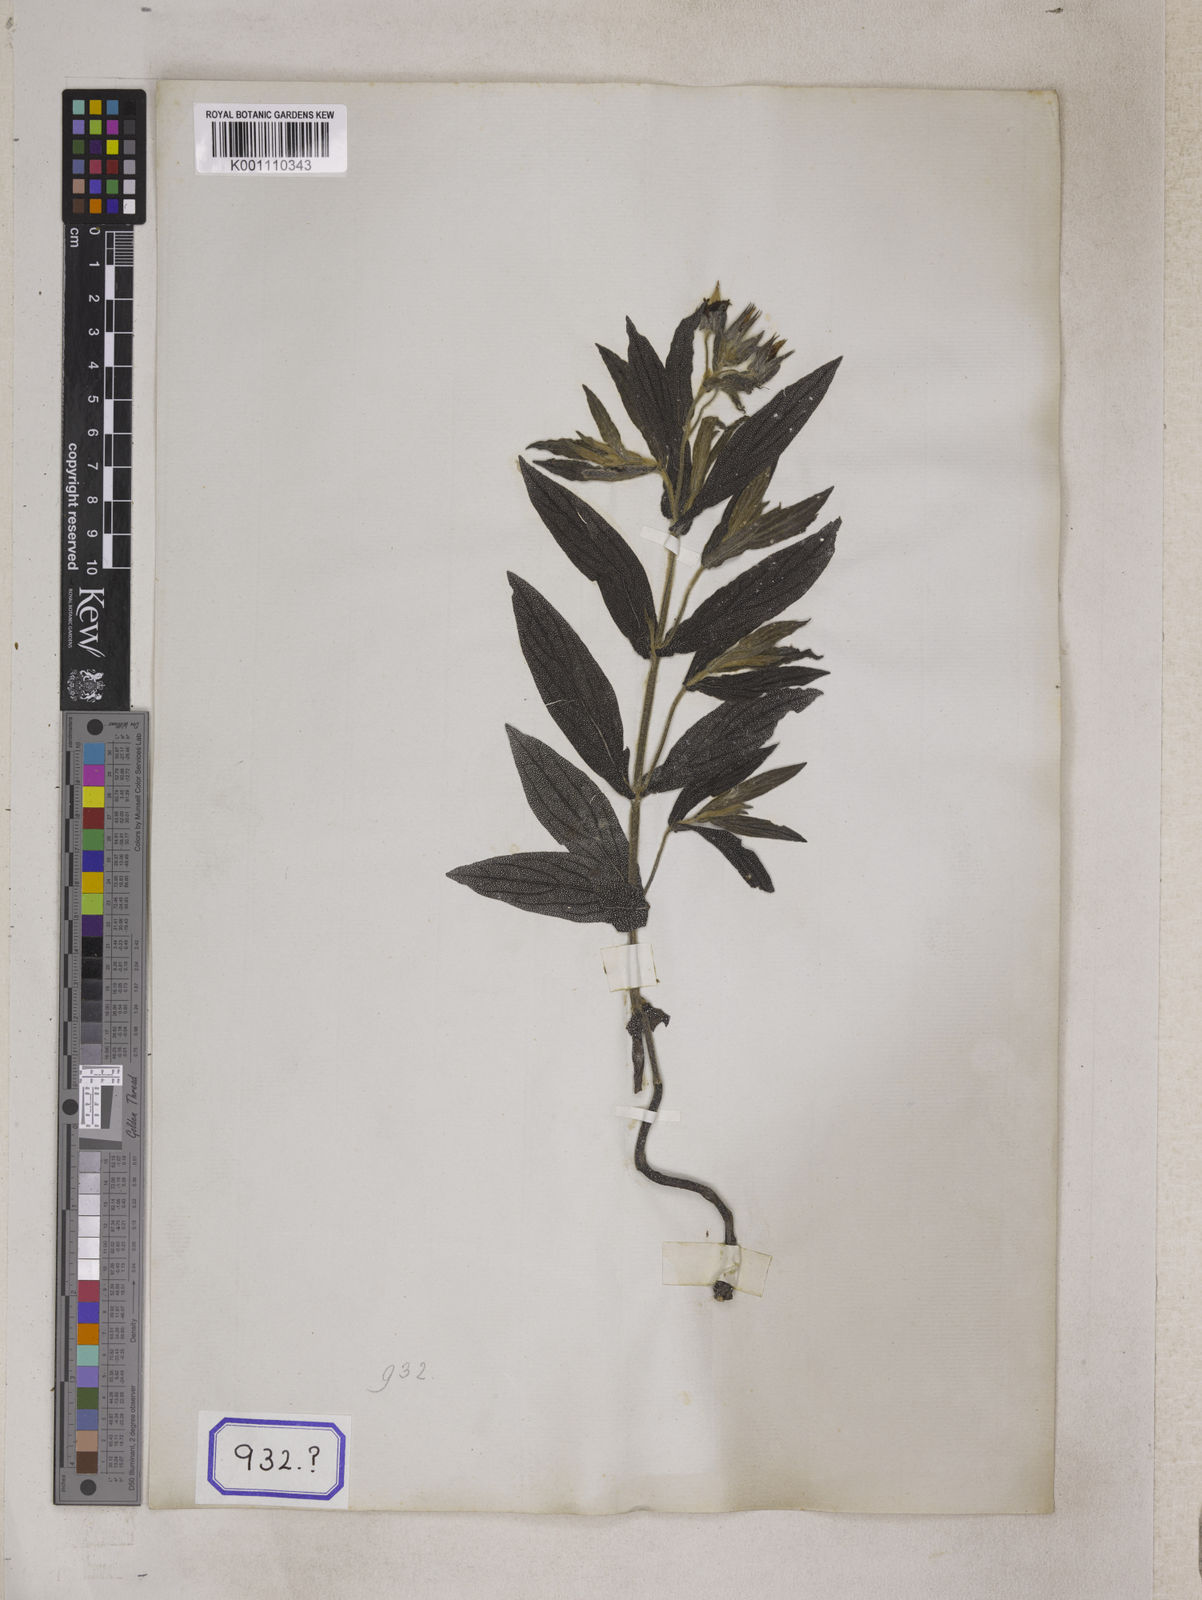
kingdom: Plantae
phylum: Tracheophyta
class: Magnoliopsida
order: Boraginales
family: Boraginaceae
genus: Trichodesma
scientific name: Trichodesma
